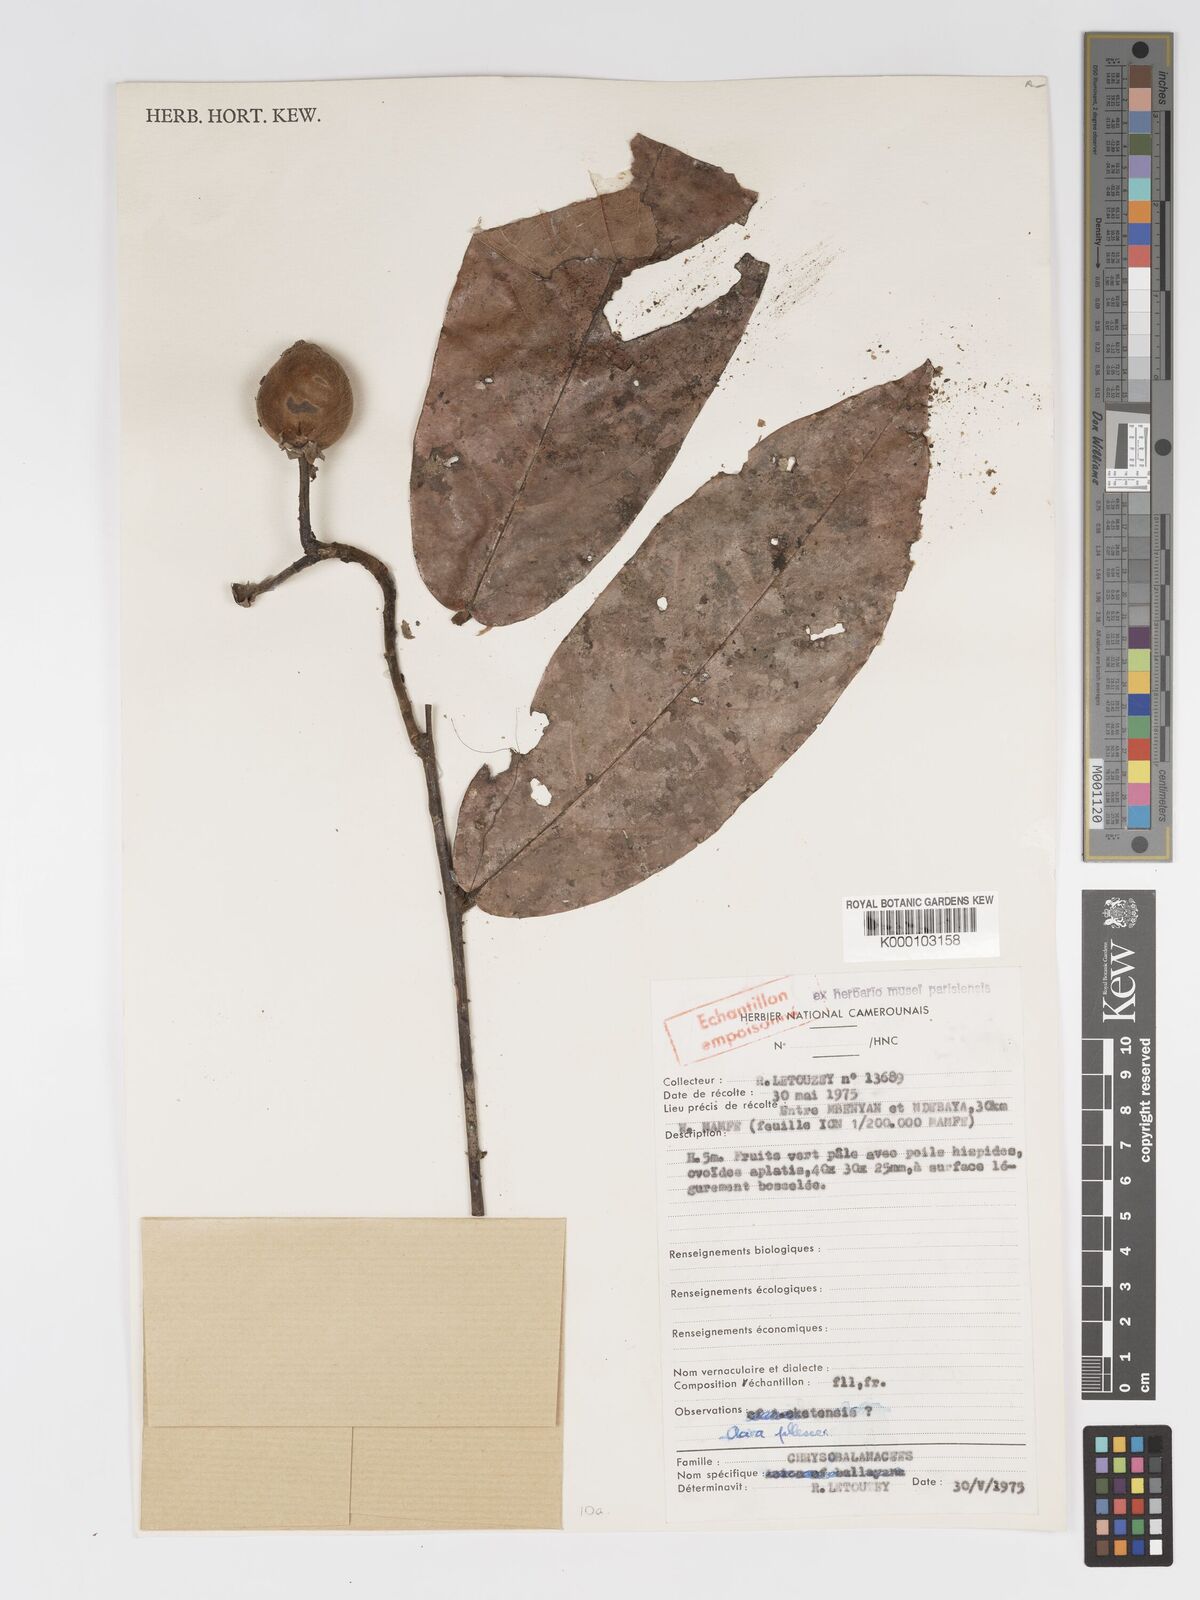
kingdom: Plantae
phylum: Tracheophyta
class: Magnoliopsida
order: Malpighiales
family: Chrysobalanaceae
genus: Dactyladenia
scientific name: Dactyladenia pallescens
